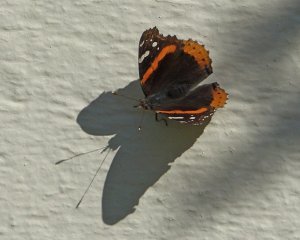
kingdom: Animalia
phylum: Arthropoda
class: Insecta
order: Lepidoptera
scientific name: Lepidoptera
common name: Butterflies
